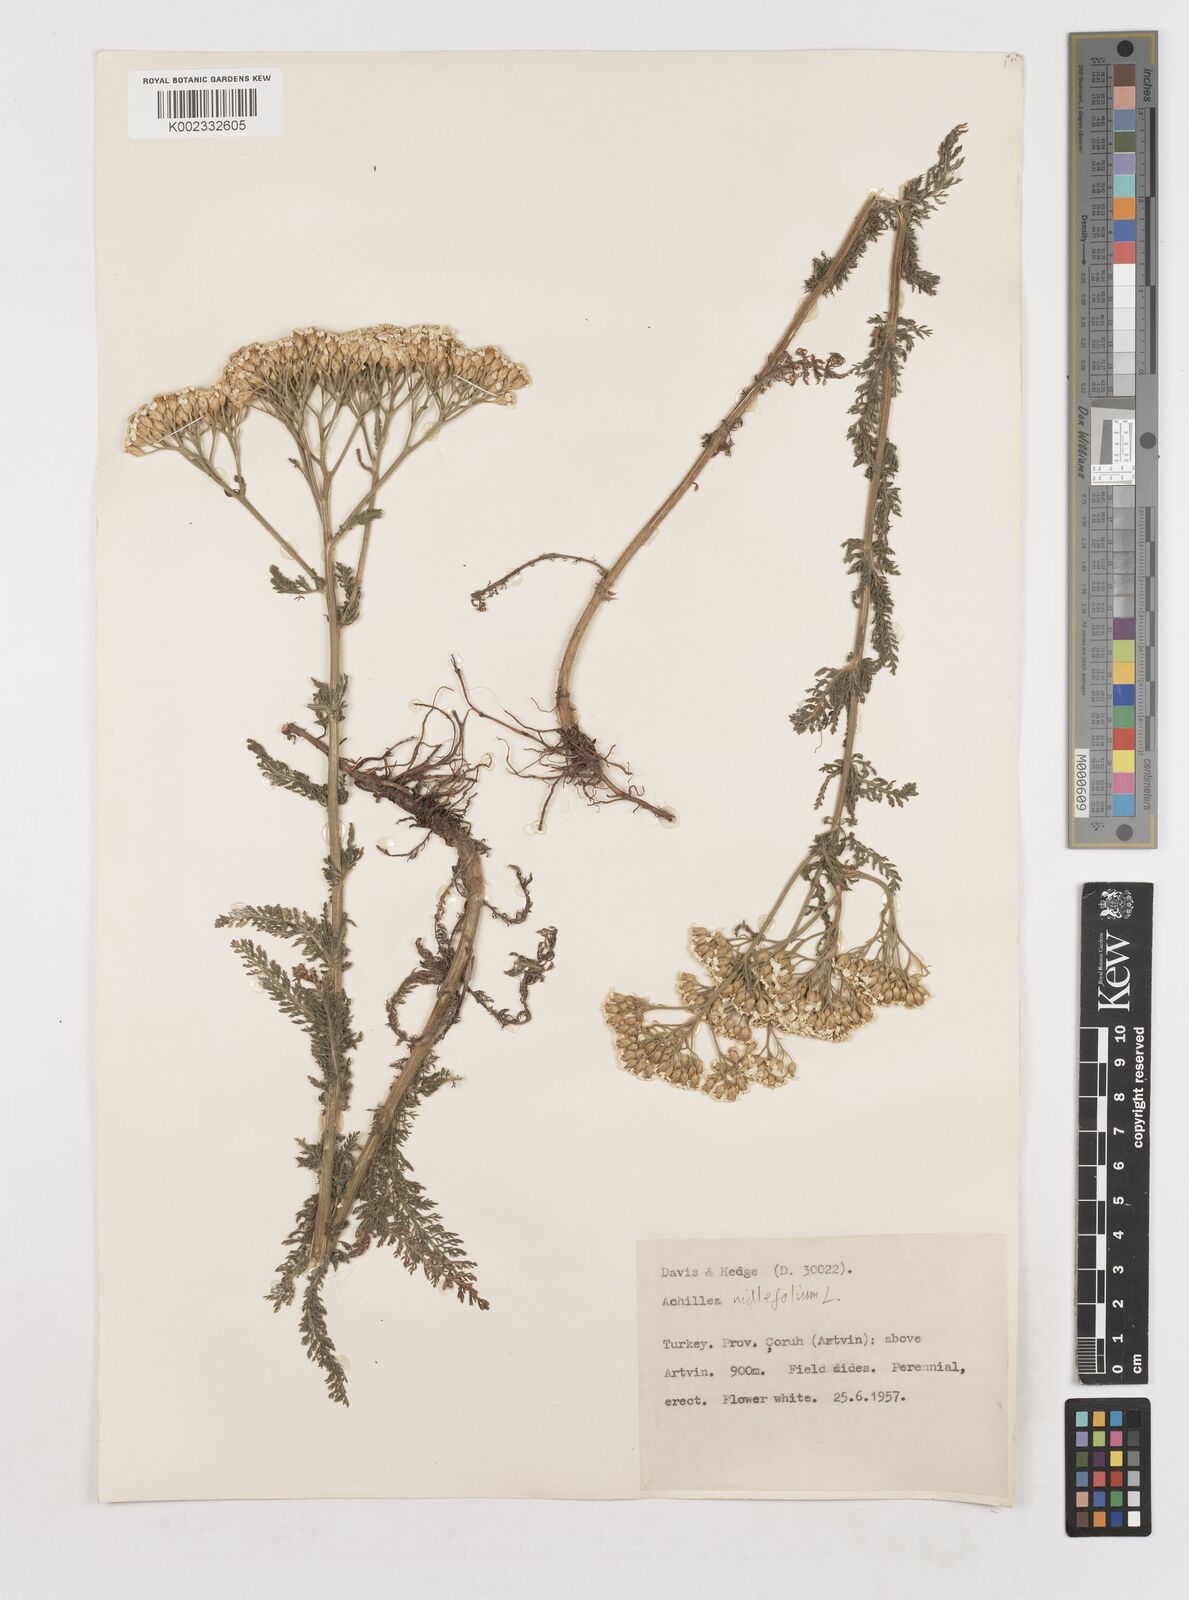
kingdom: Plantae
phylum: Tracheophyta
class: Magnoliopsida
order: Asterales
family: Asteraceae
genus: Achillea
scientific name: Achillea millefolium
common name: Yarrow
